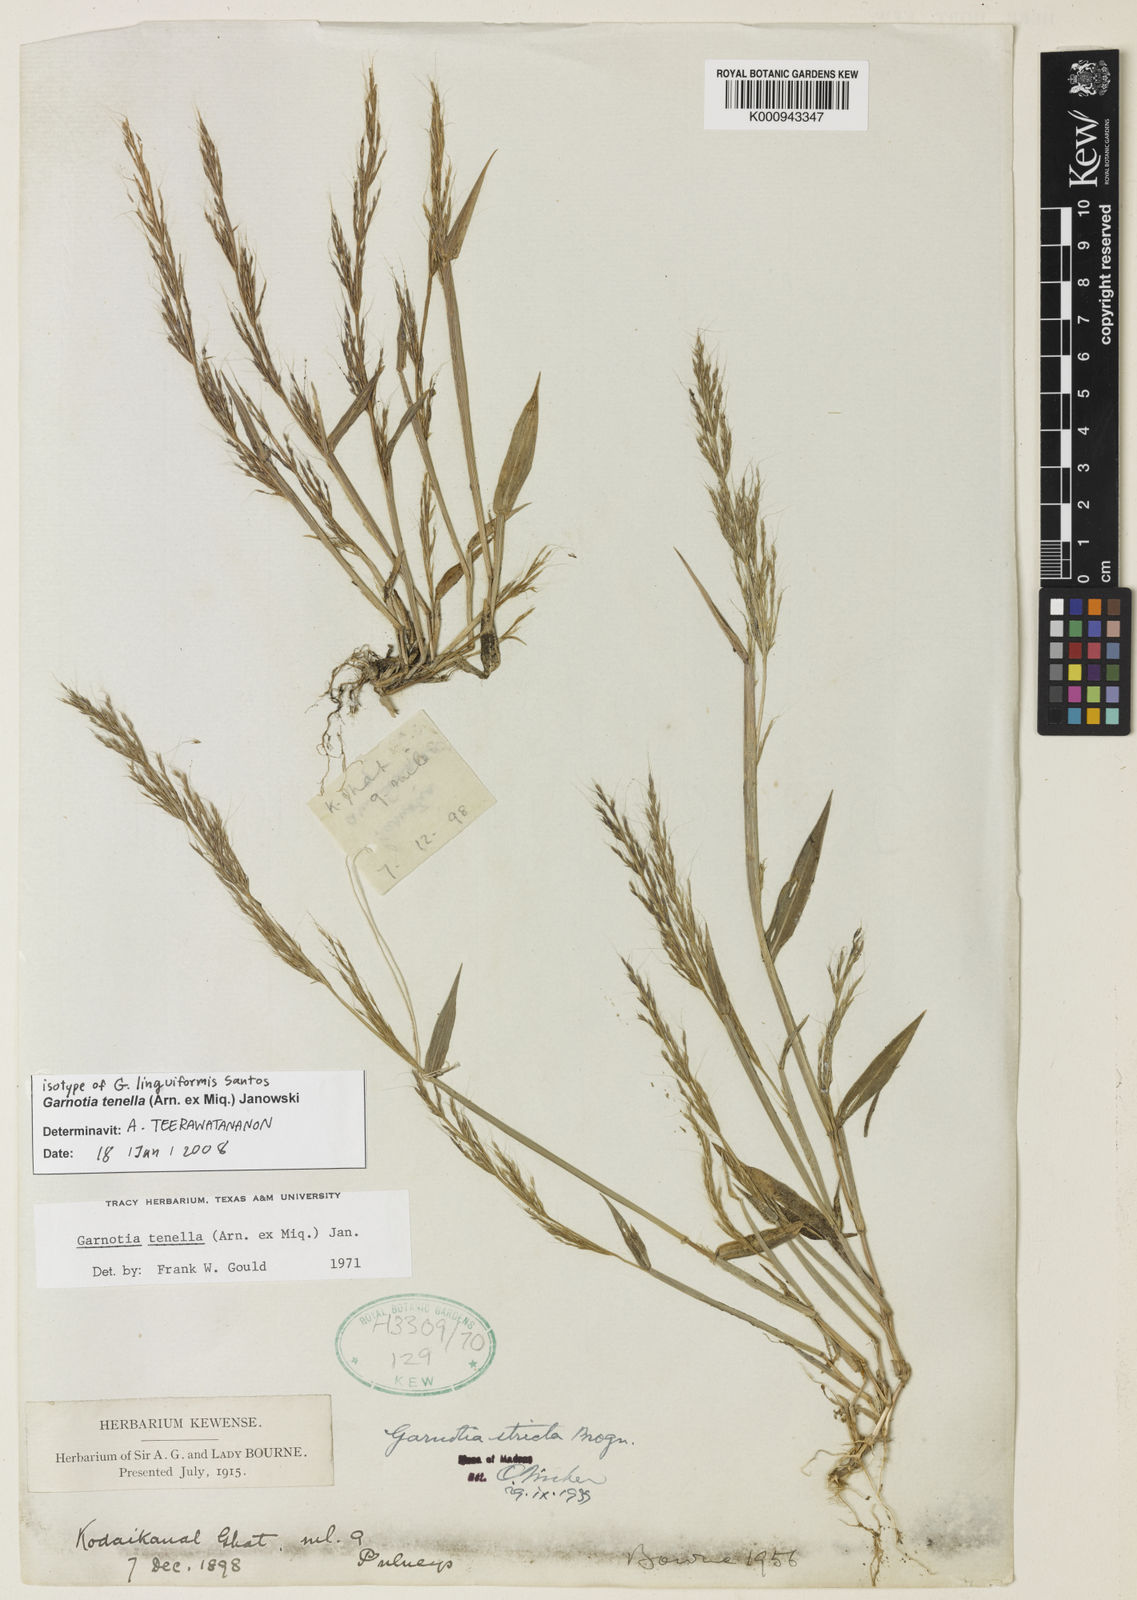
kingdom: Plantae
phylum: Tracheophyta
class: Liliopsida
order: Poales
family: Poaceae
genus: Garnotia
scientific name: Garnotia tenella
